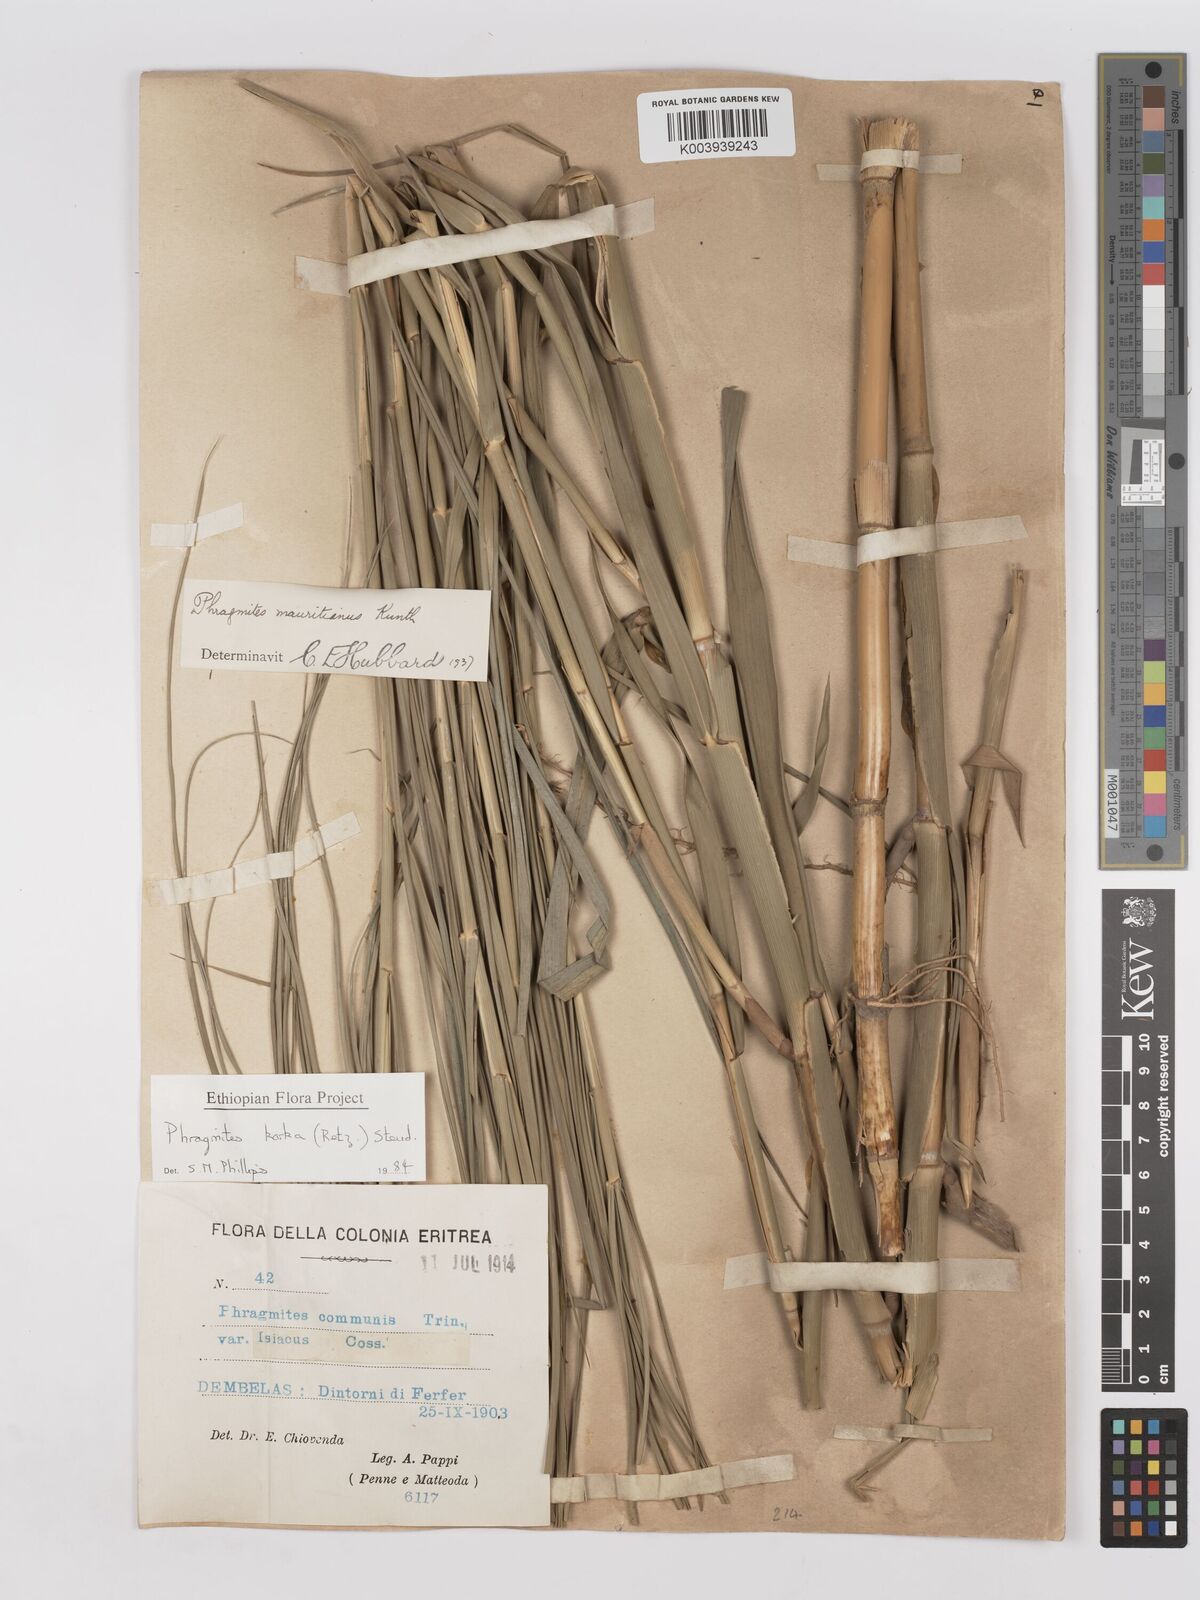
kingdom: Plantae
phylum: Tracheophyta
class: Liliopsida
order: Poales
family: Poaceae
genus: Phragmites
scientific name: Phragmites karka
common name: Tropical reed
